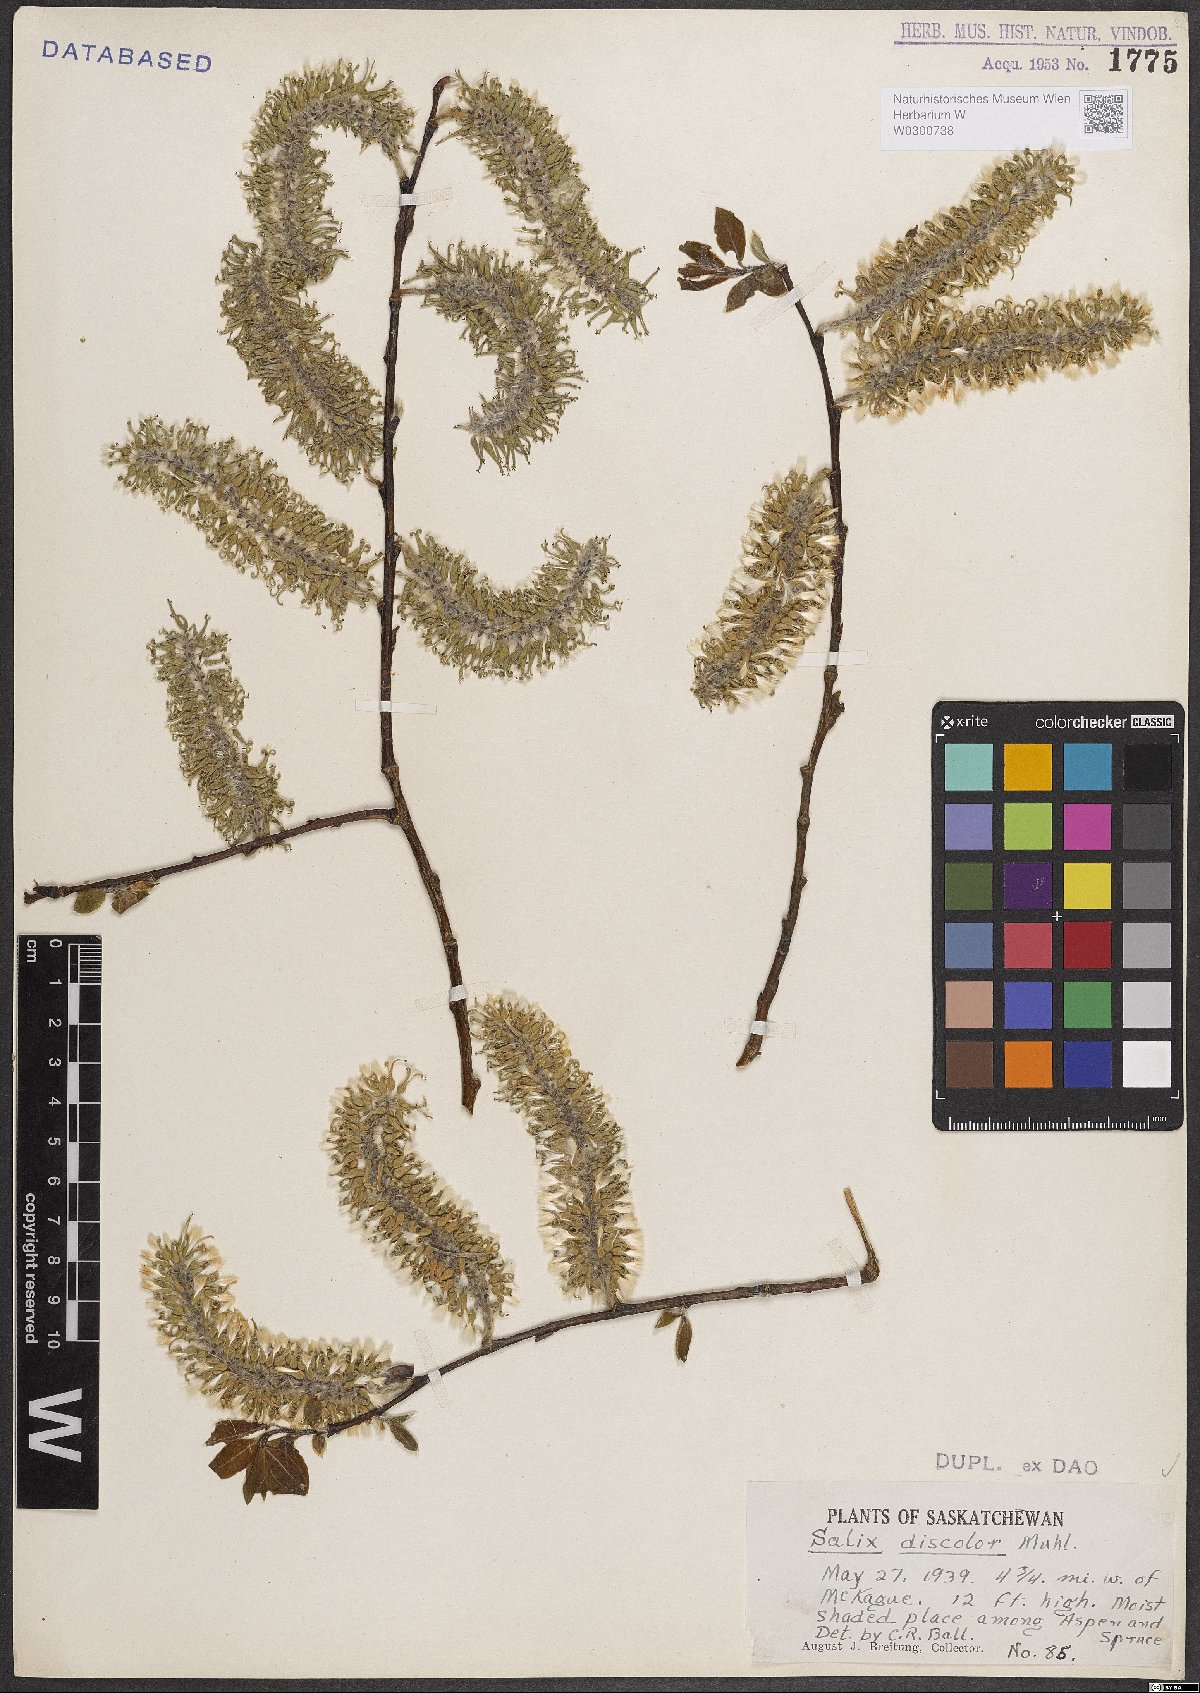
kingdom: Plantae
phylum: Tracheophyta
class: Magnoliopsida
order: Malpighiales
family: Salicaceae
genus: Salix
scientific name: Salix discolor
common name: Glaucous willow
